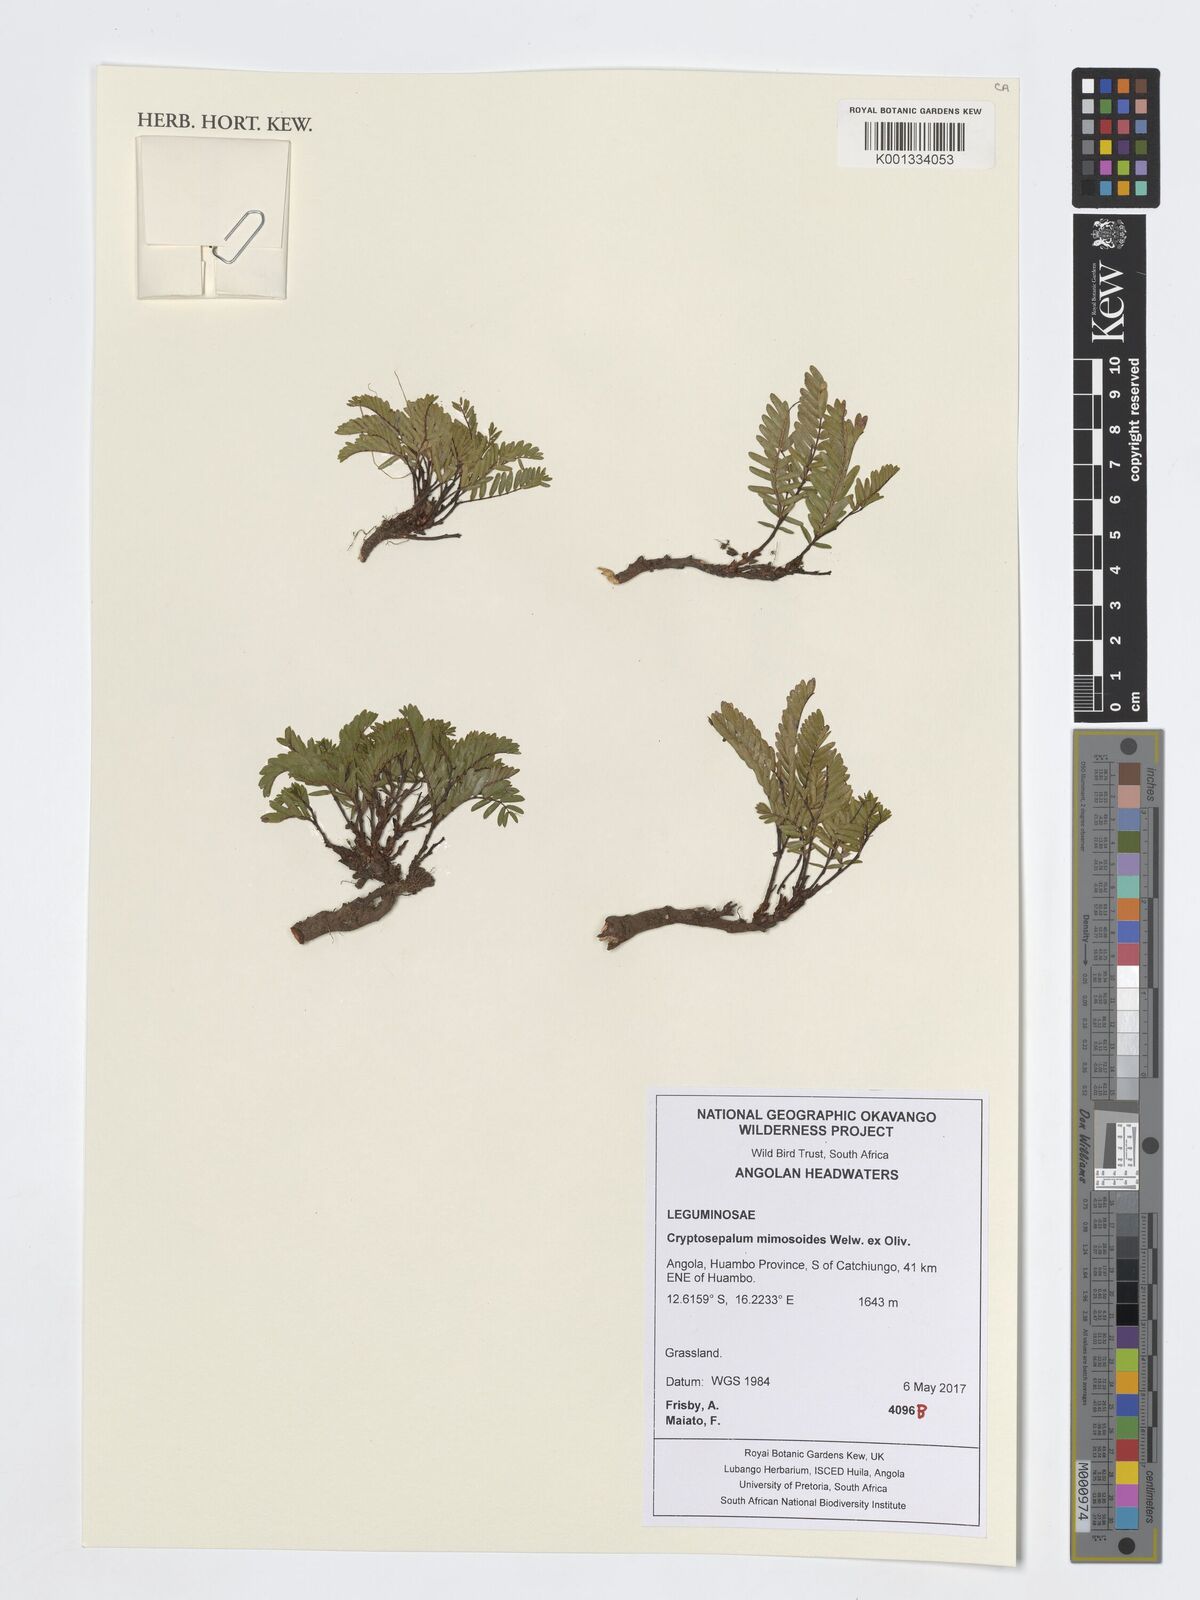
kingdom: Plantae
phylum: Tracheophyta
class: Magnoliopsida
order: Fabales
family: Fabaceae
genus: Cryptosepalum
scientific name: Cryptosepalum mimosoides
